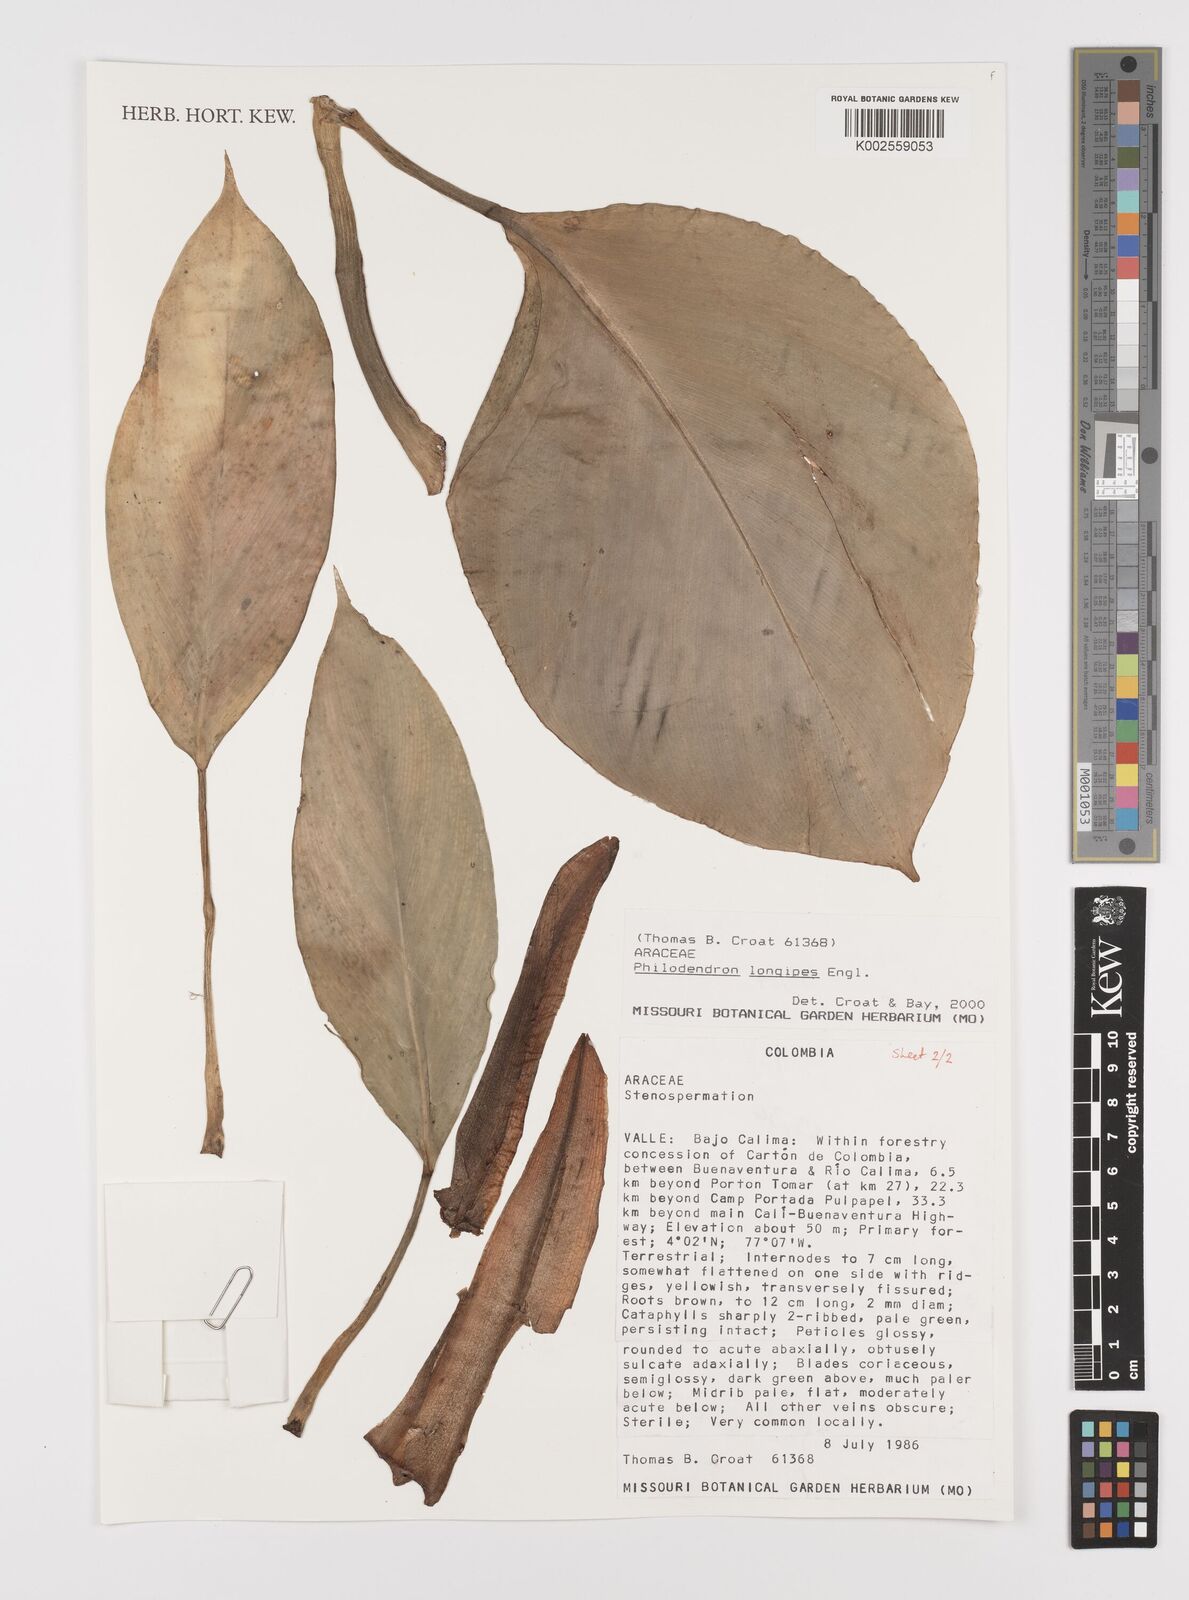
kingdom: Plantae
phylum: Tracheophyta
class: Liliopsida
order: Alismatales
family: Araceae
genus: Philodendron
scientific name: Philodendron longipes
